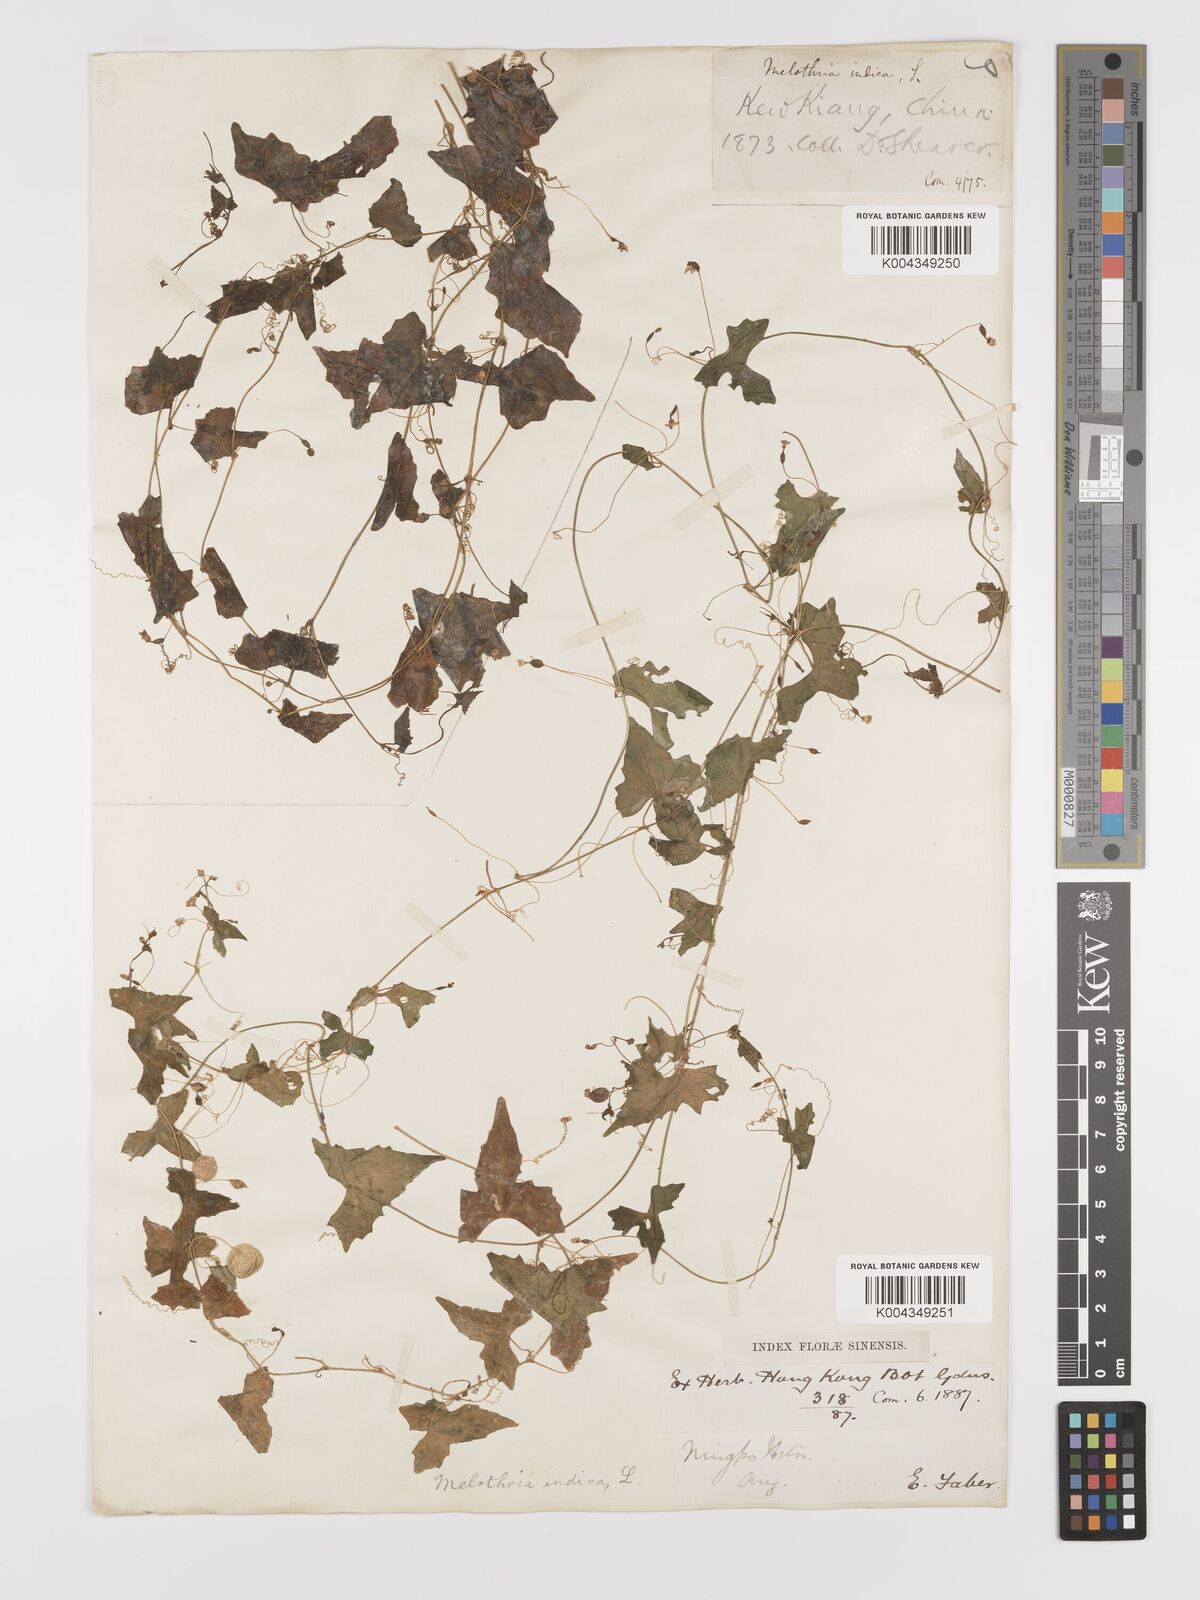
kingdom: Plantae
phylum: Tracheophyta
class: Magnoliopsida
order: Cucurbitales
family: Cucurbitaceae
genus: Zehneria
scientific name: Zehneria japonica
